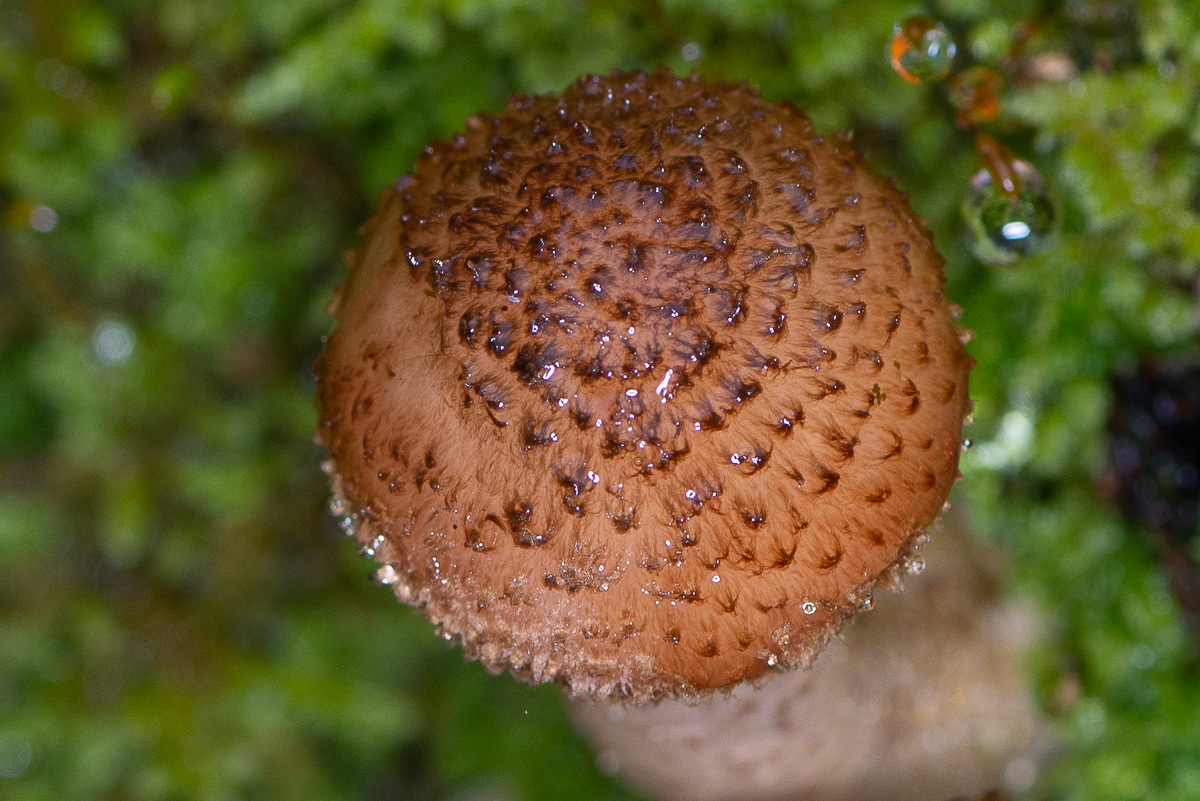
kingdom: Fungi
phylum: Basidiomycota
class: Agaricomycetes
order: Agaricales
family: Physalacriaceae
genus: Armillaria
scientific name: Armillaria ostoyae
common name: mørk honningsvamp
